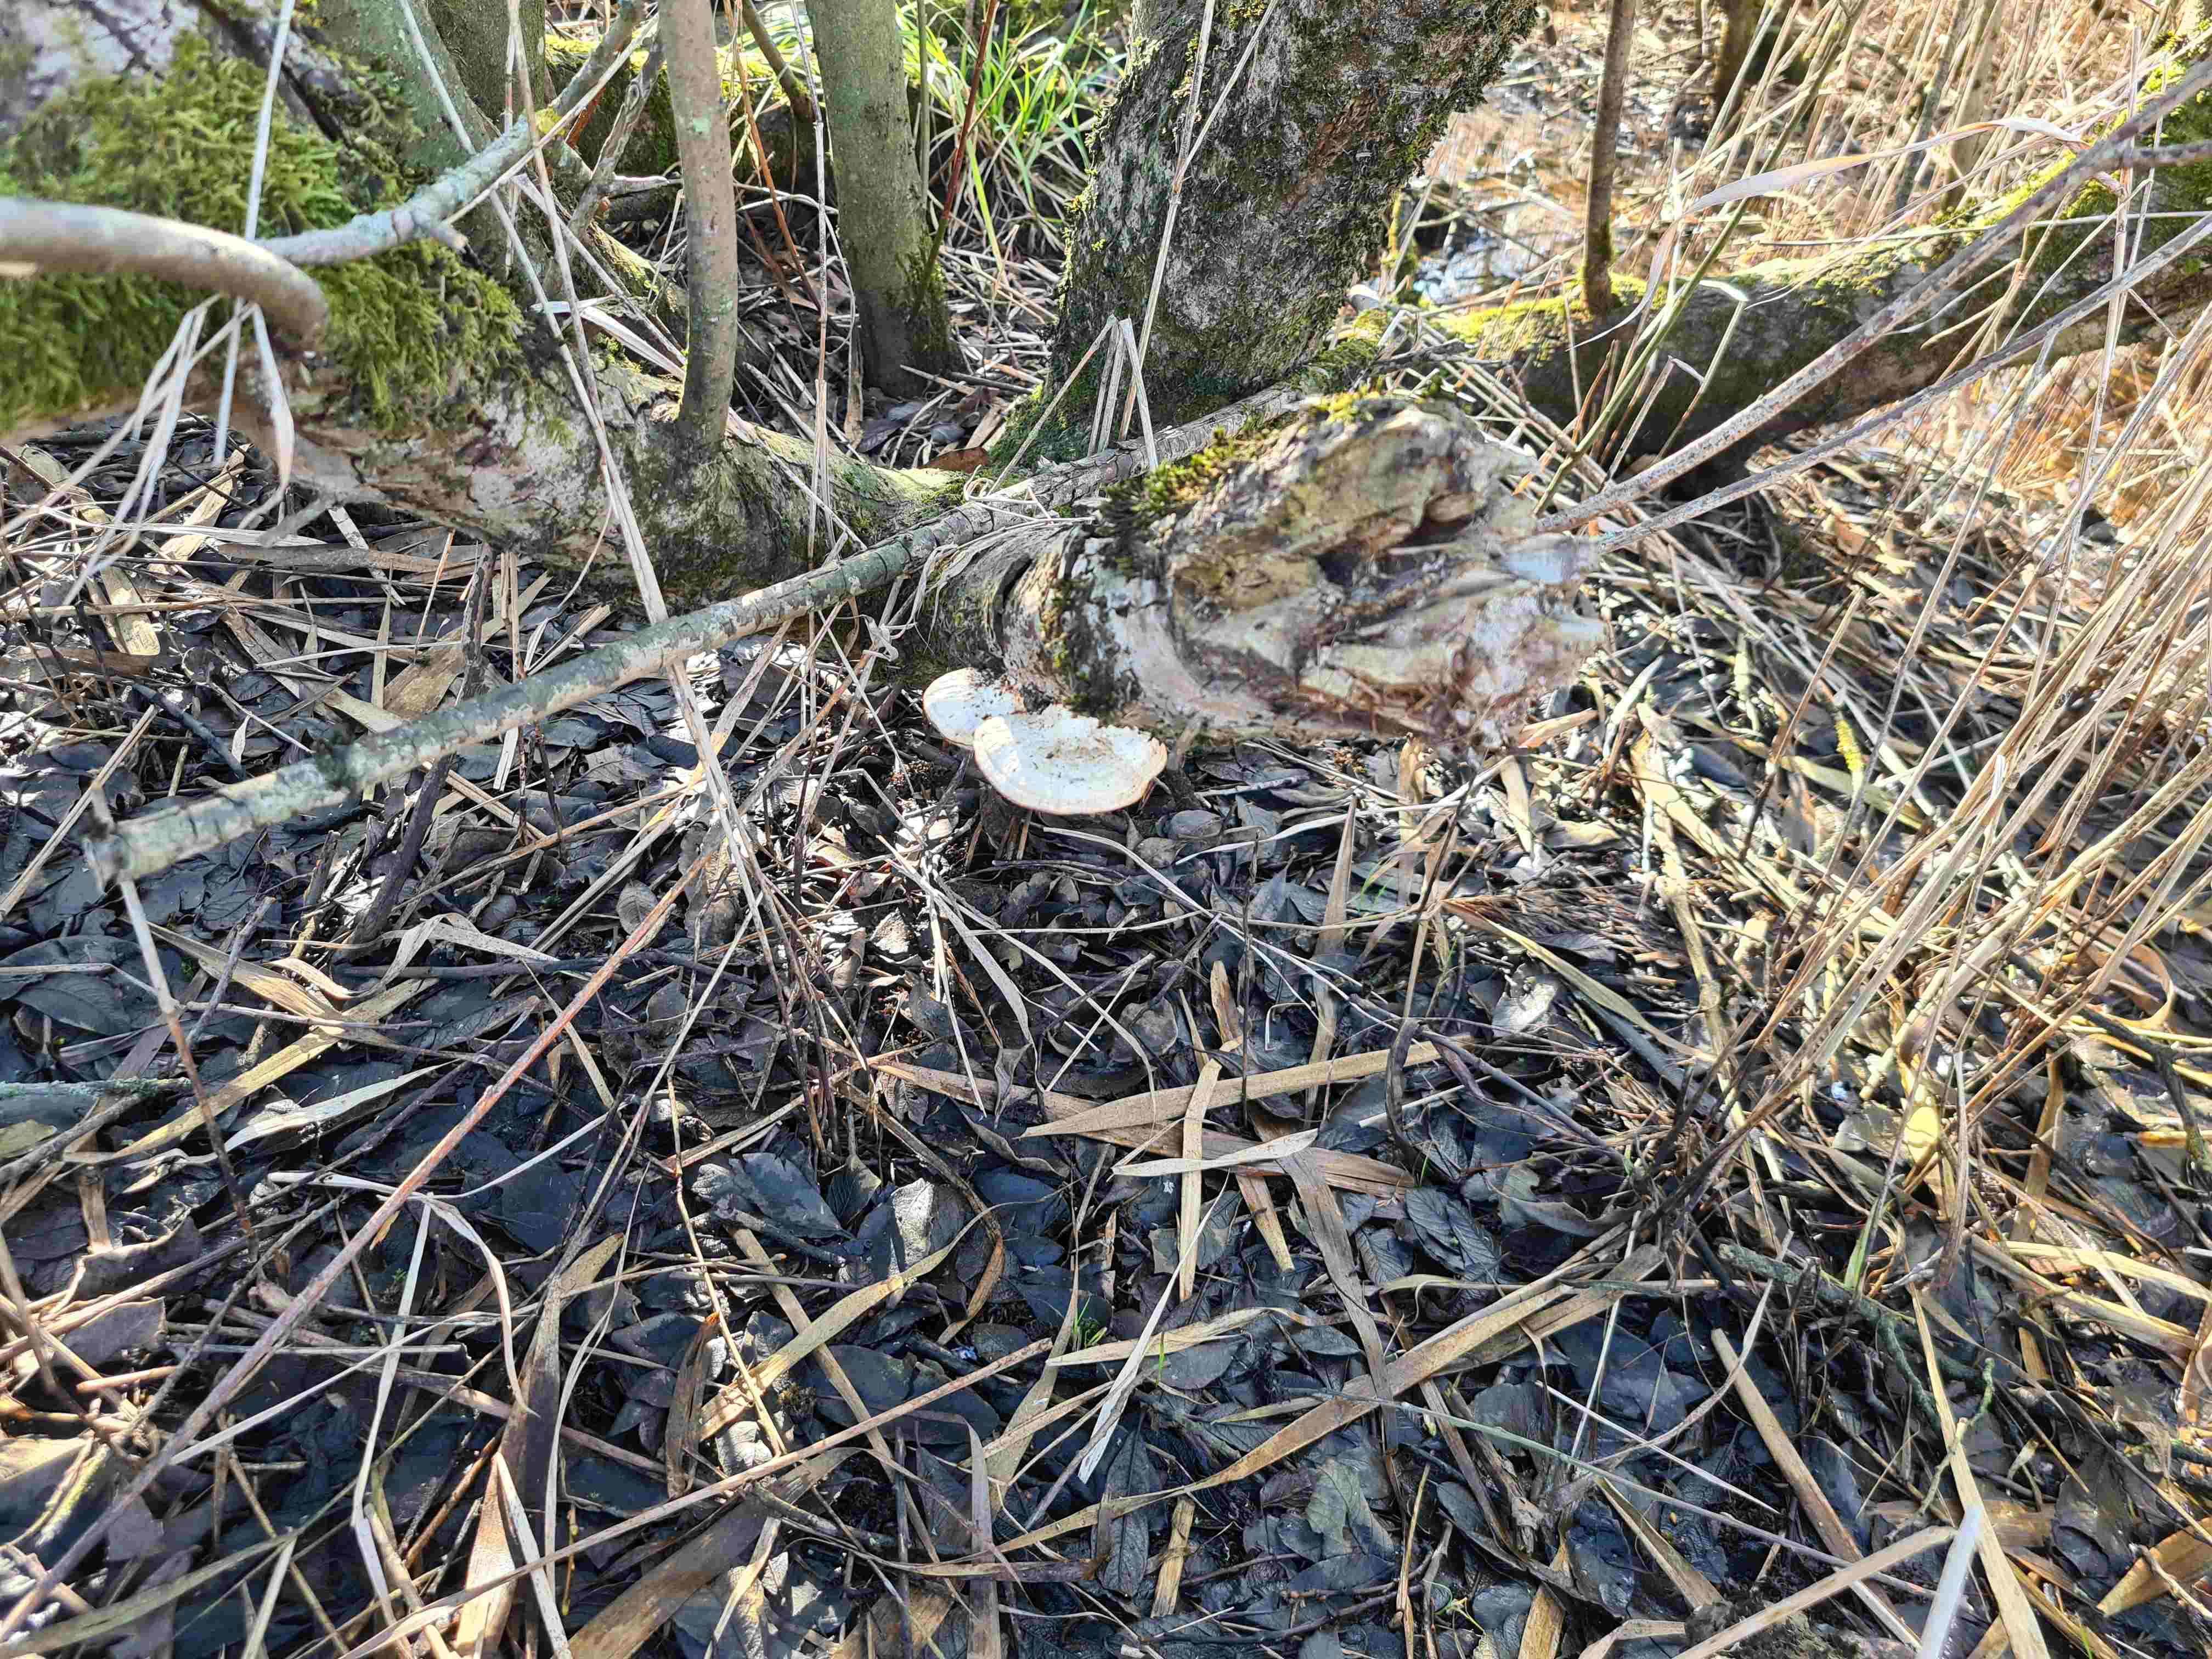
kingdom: Fungi
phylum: Basidiomycota
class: Agaricomycetes
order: Polyporales
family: Polyporaceae
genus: Daedaleopsis
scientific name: Daedaleopsis confragosa
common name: rødmende læderporesvamp
